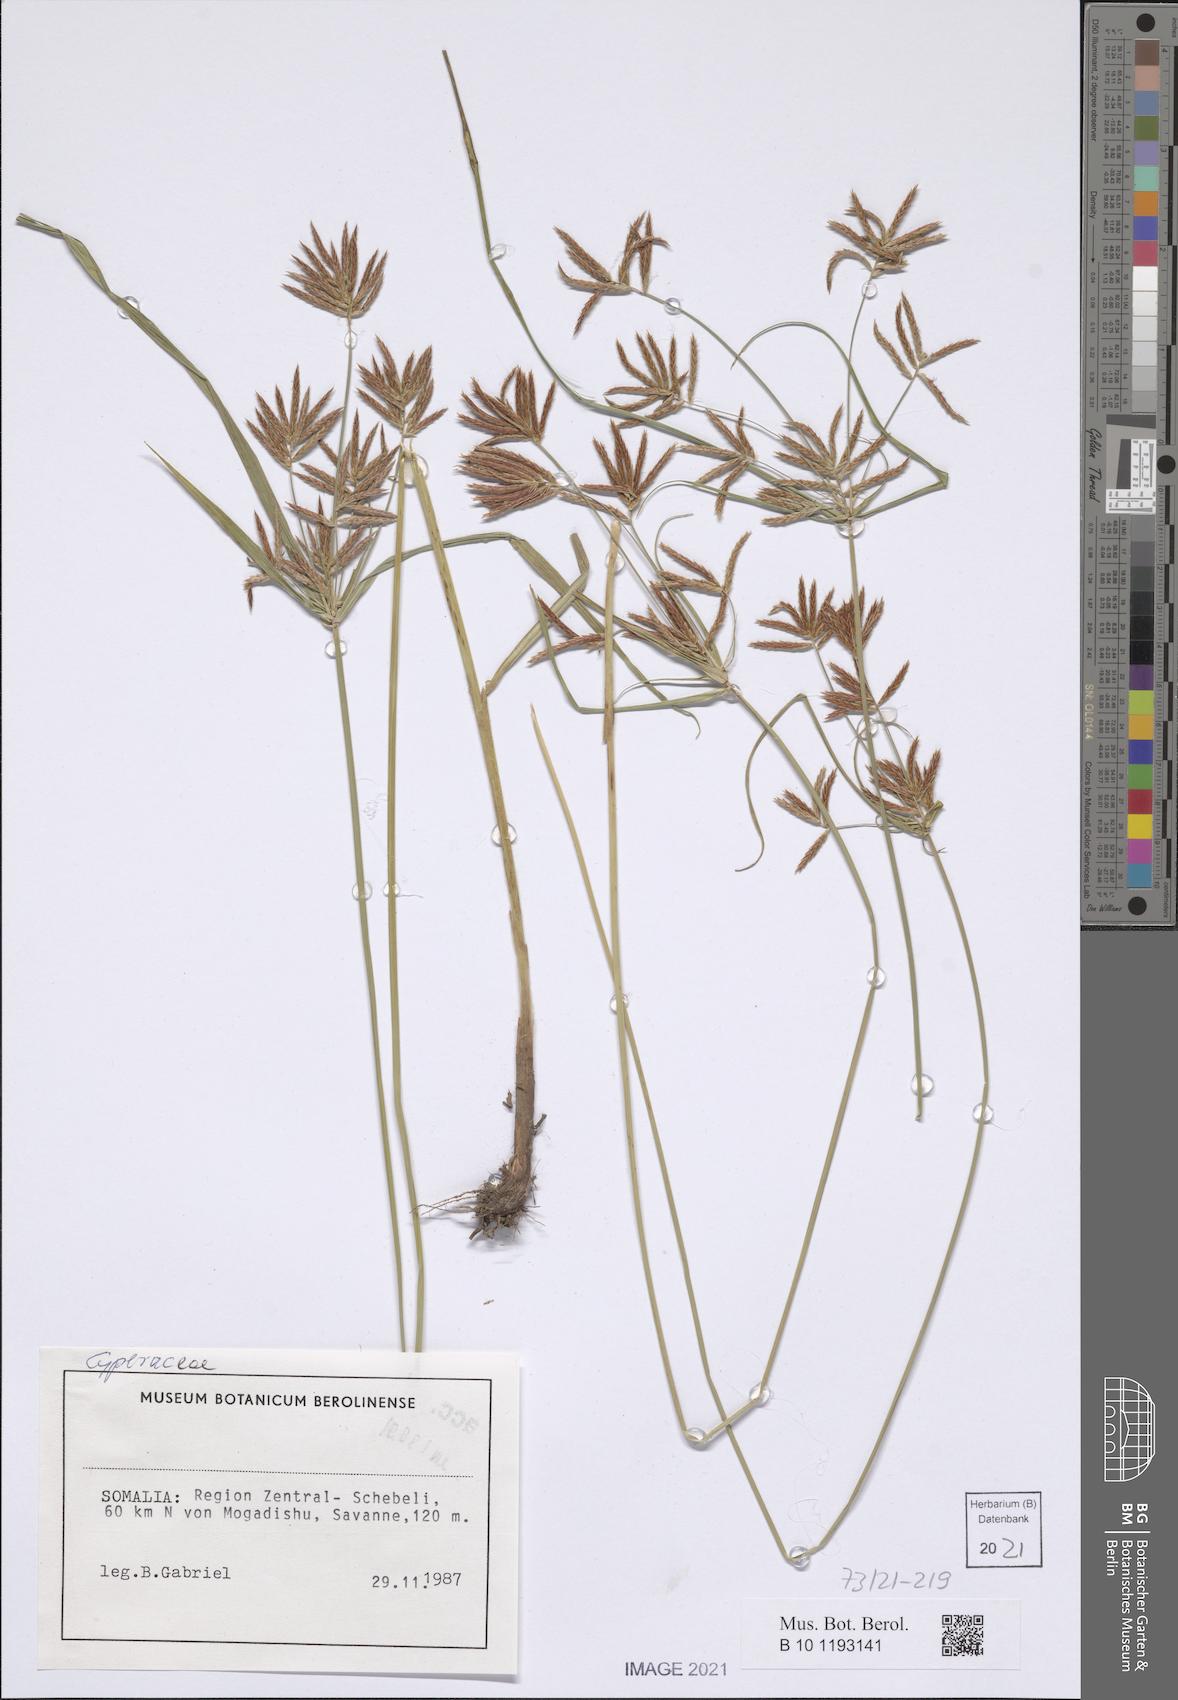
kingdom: Plantae
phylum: Tracheophyta
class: Liliopsida
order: Poales
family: Cyperaceae
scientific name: Cyperaceae
